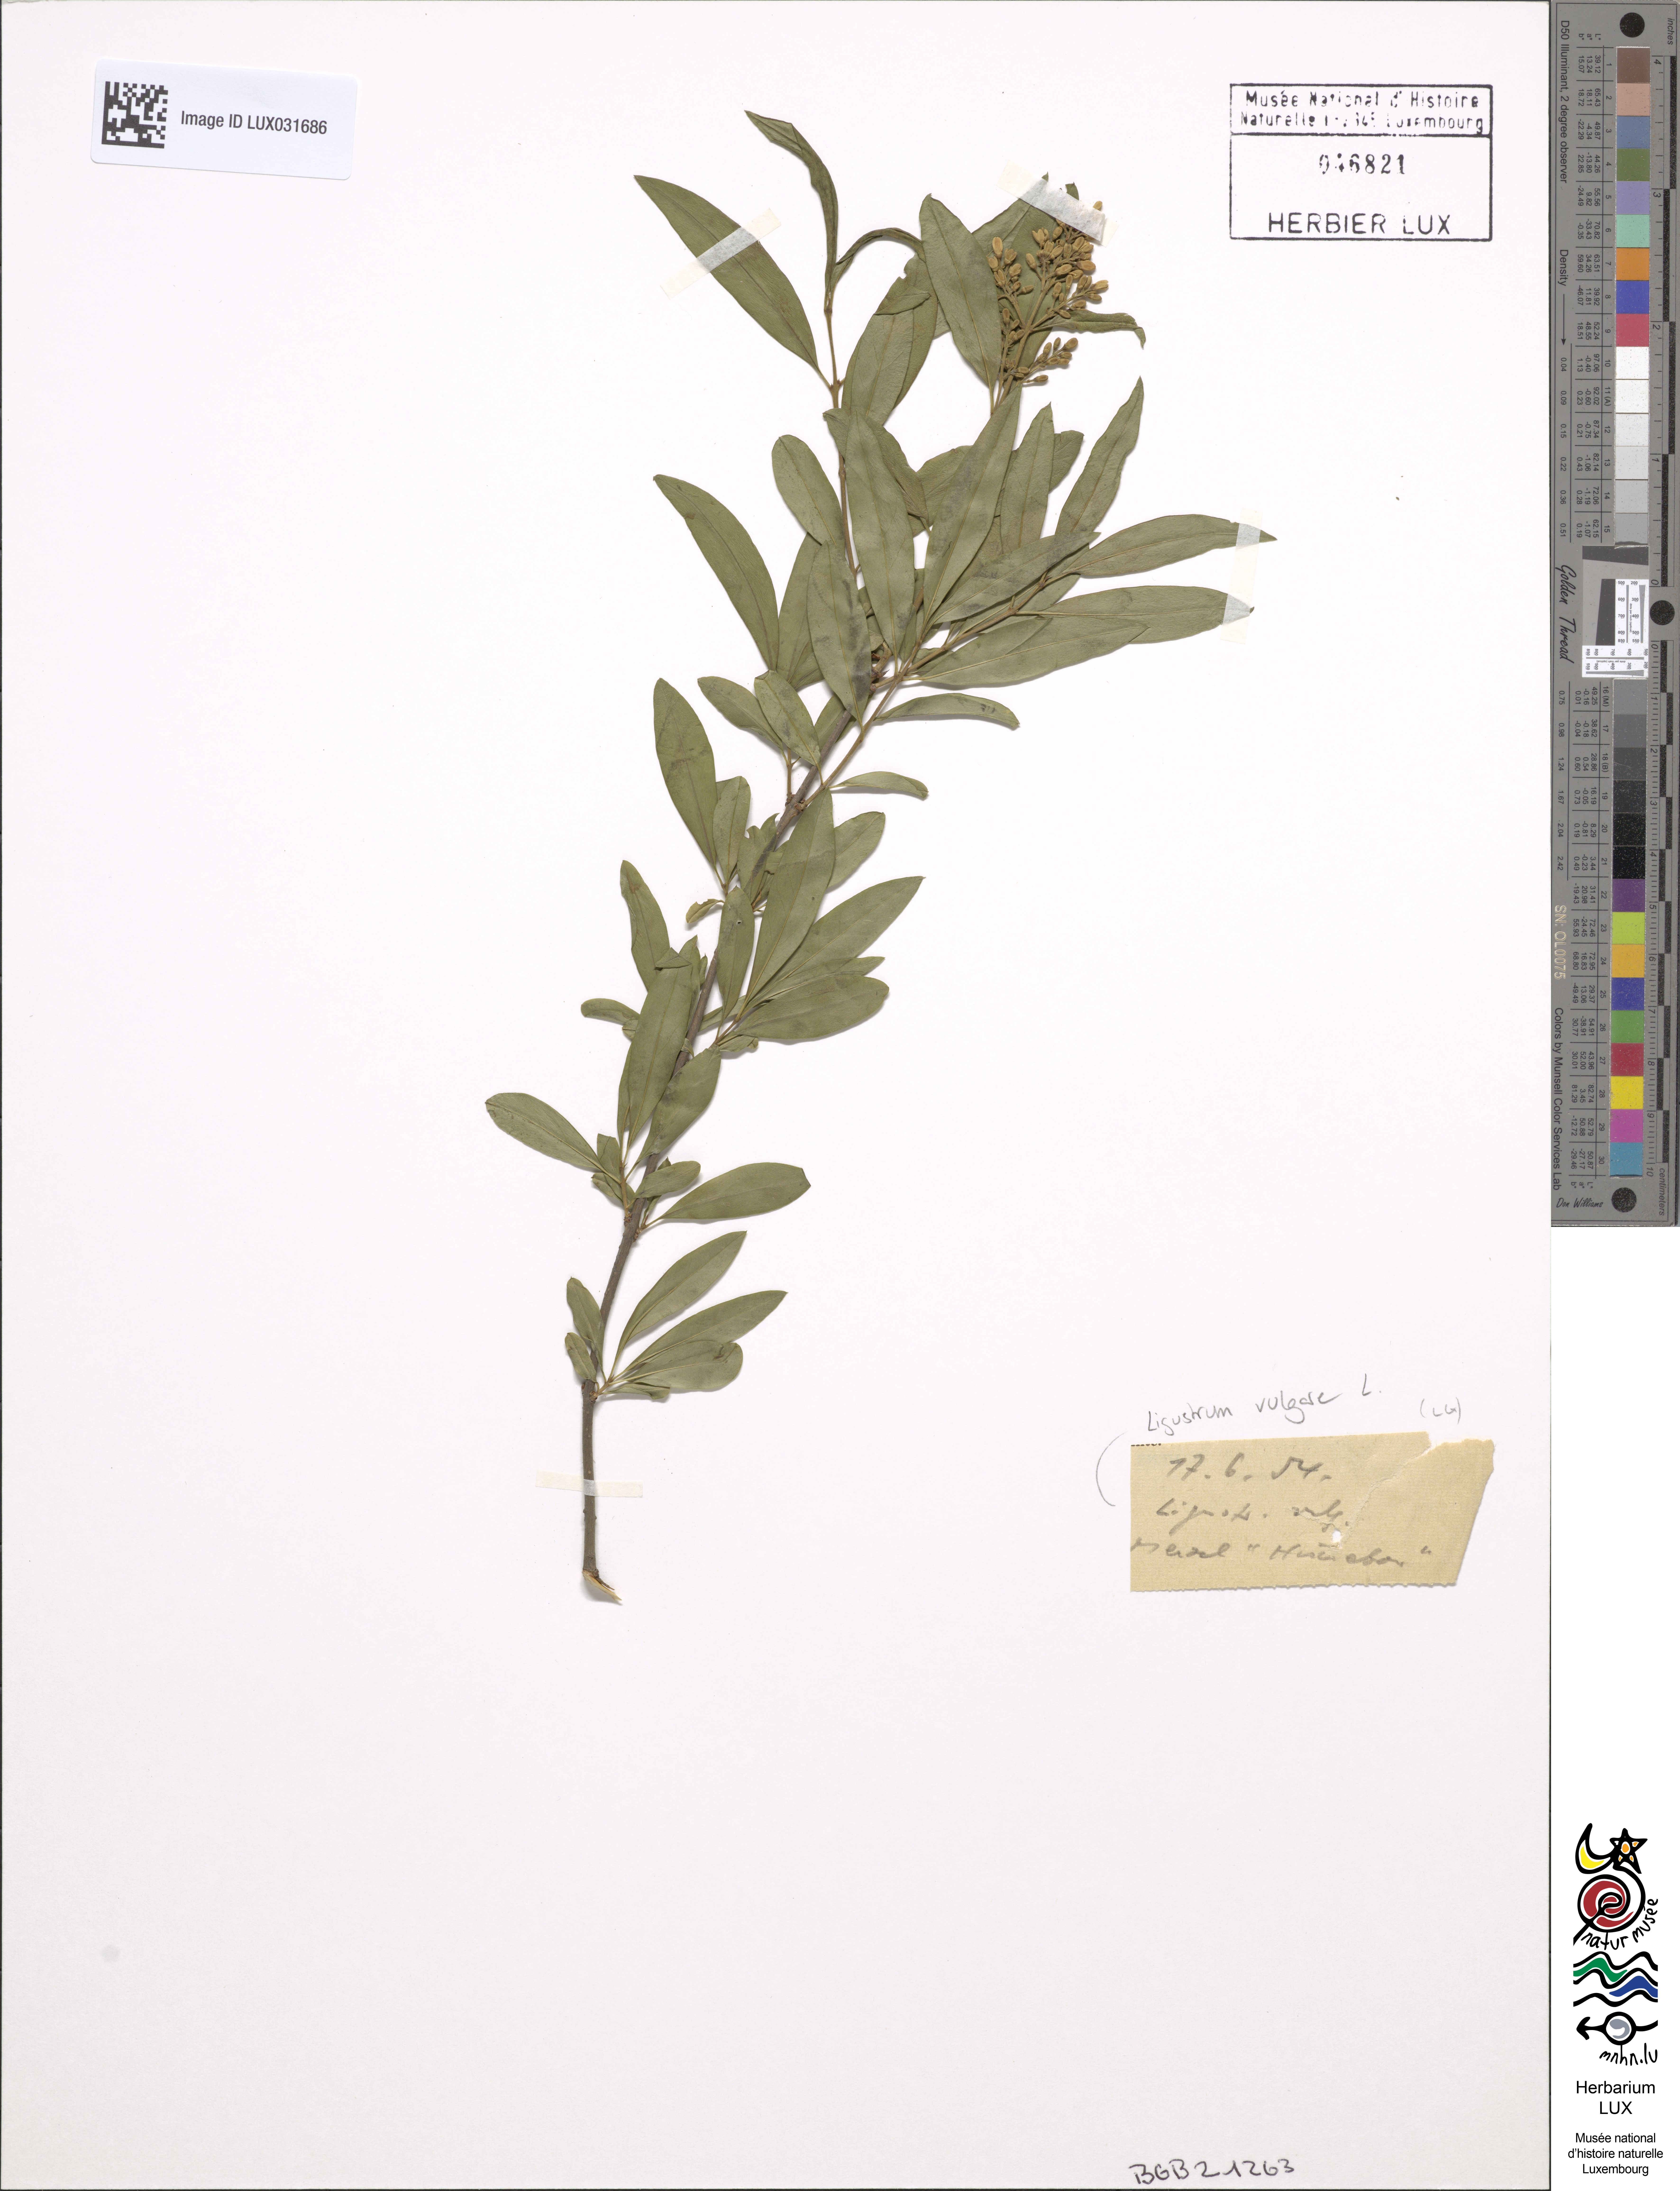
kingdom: Plantae
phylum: Tracheophyta
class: Magnoliopsida
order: Lamiales
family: Oleaceae
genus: Ligustrum
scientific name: Ligustrum vulgare
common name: Wild privet
